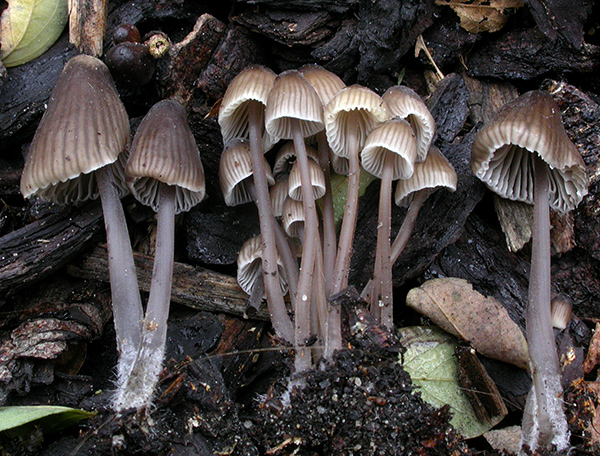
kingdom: Fungi
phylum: Basidiomycota
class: Agaricomycetes
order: Agaricales
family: Mycenaceae
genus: Mycena
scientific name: Mycena leptocephala
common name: klor-huesvamp
